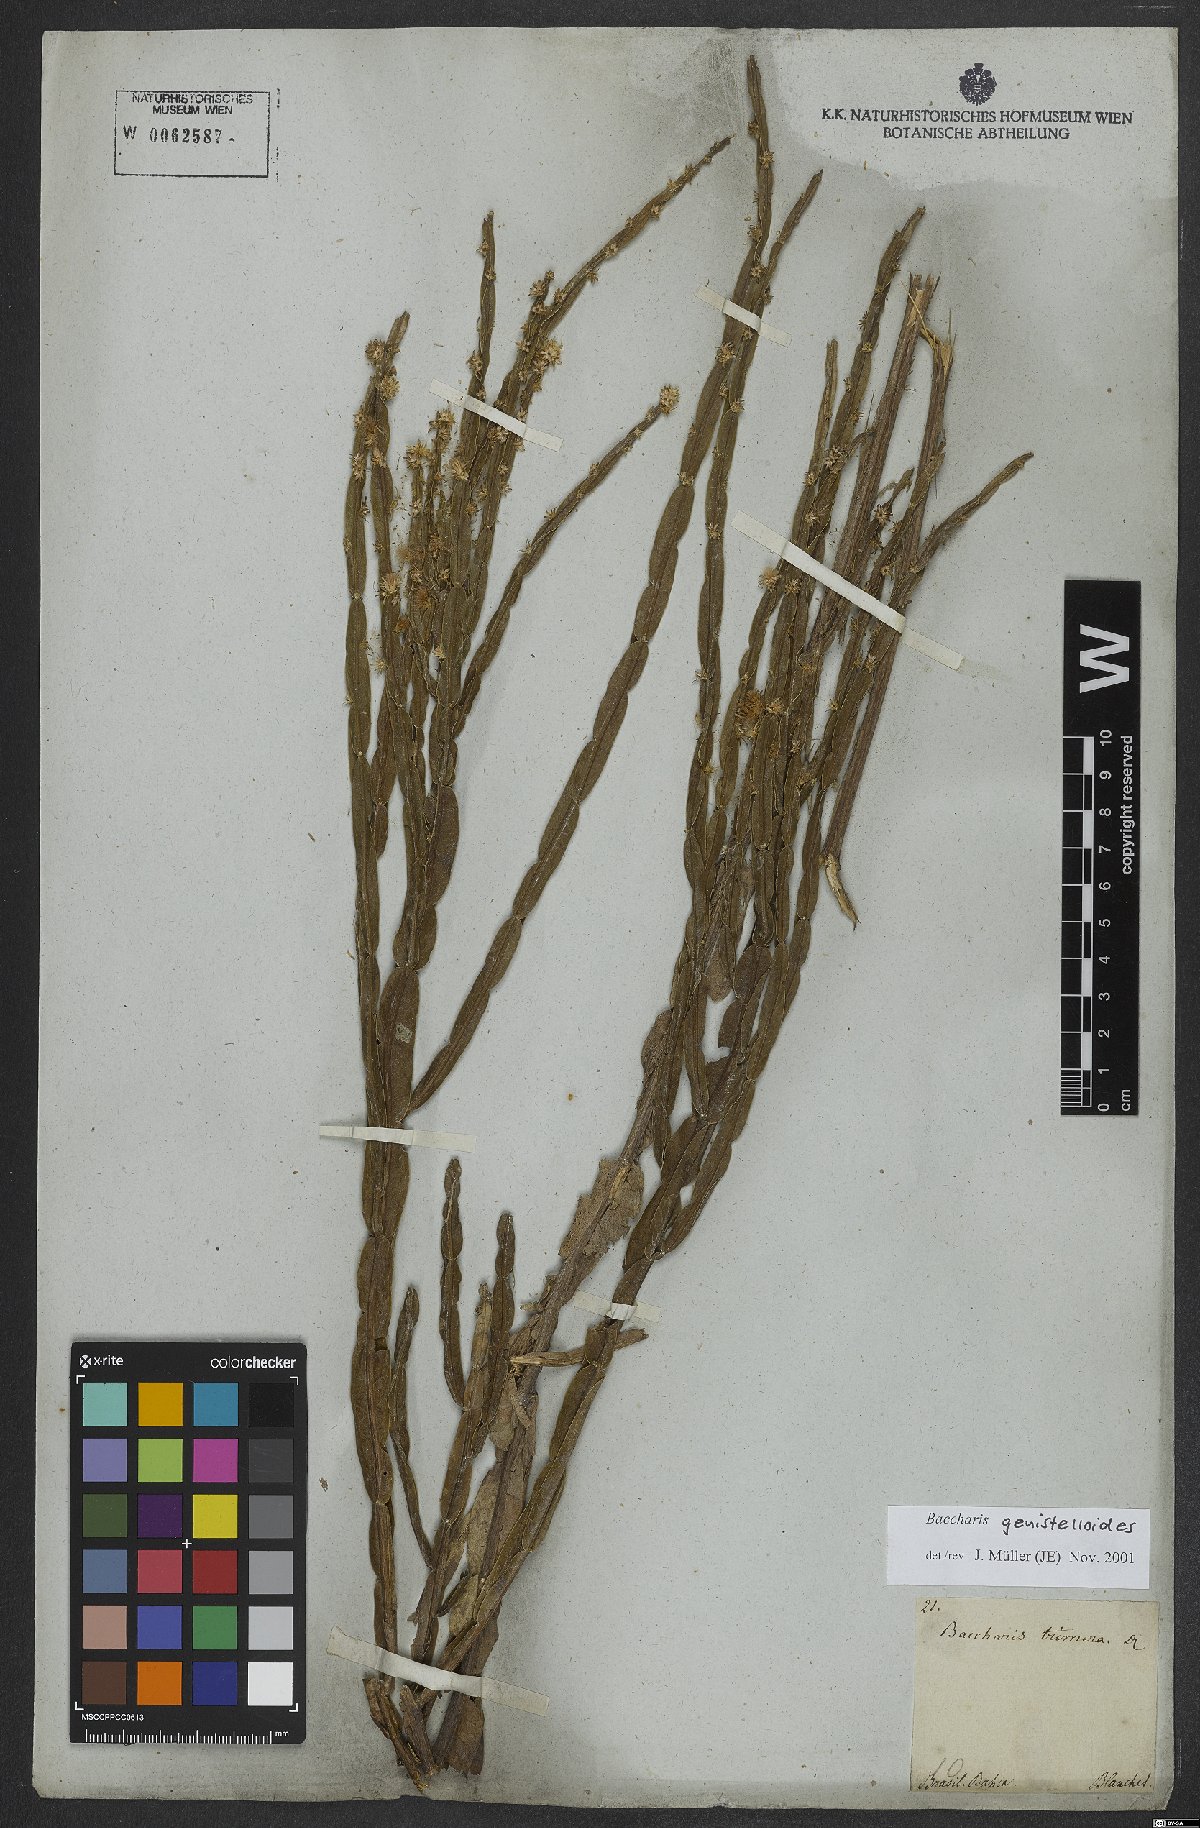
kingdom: Plantae
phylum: Tracheophyta
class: Magnoliopsida
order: Asterales
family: Asteraceae
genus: Baccharis
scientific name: Baccharis genistelloides
